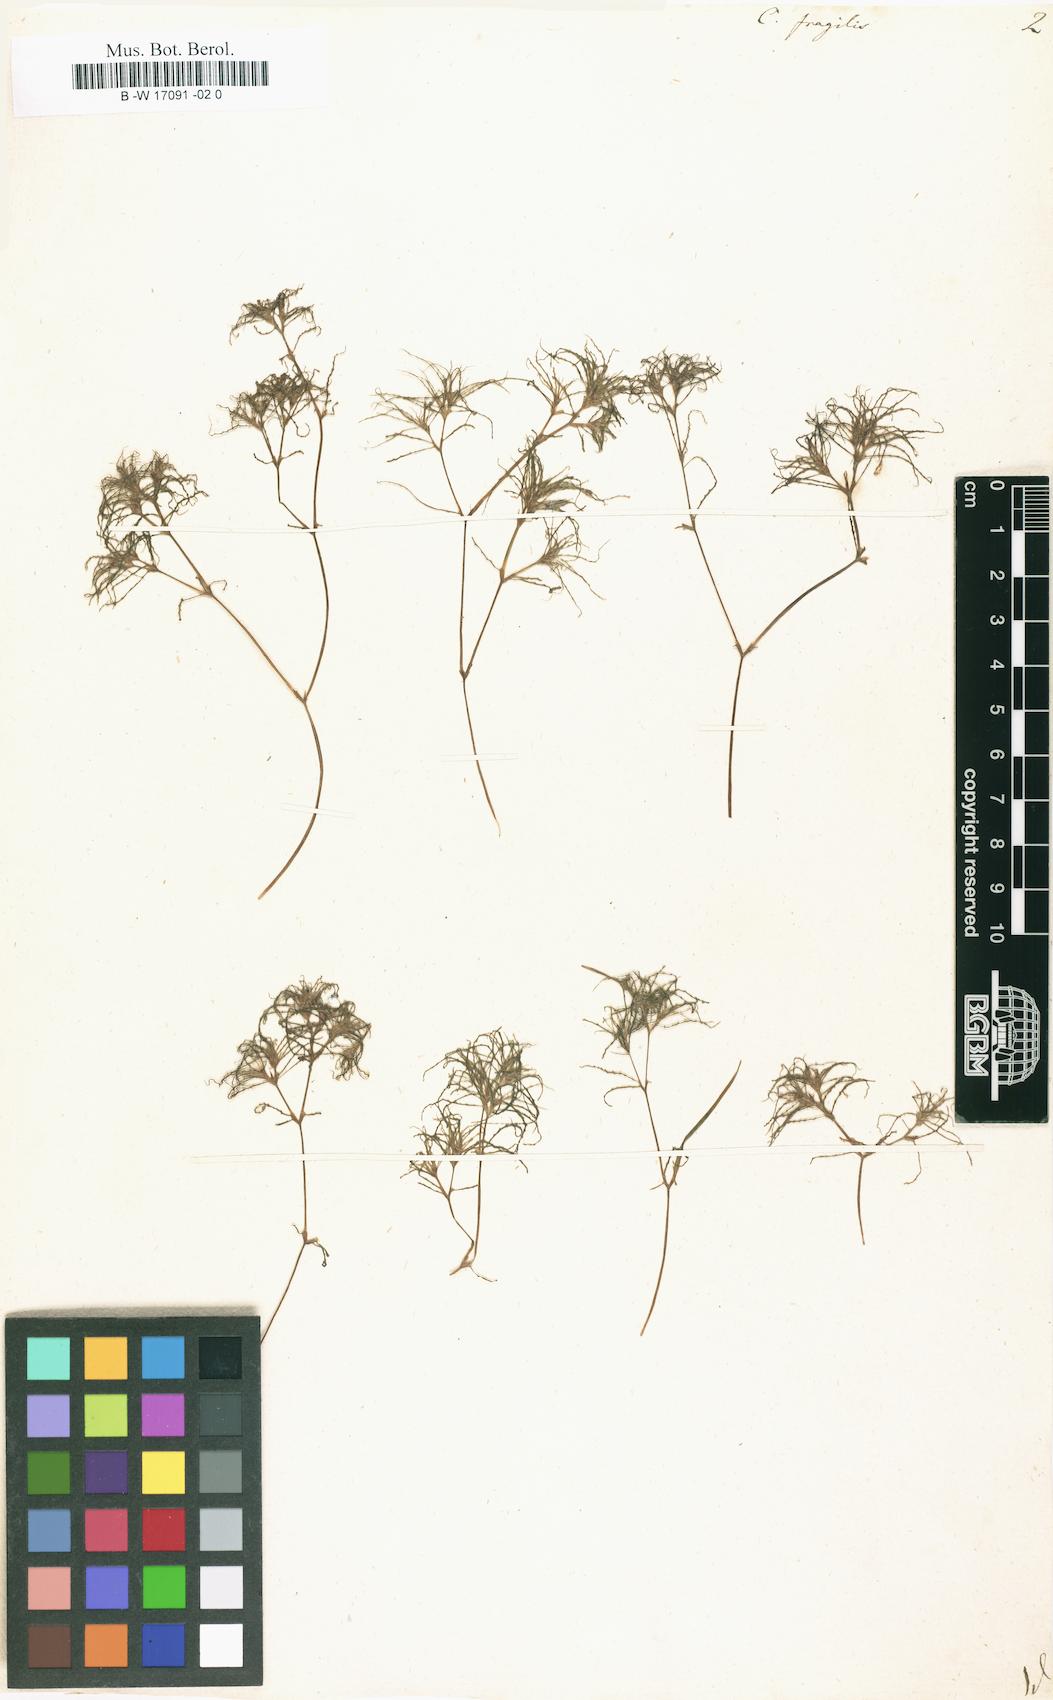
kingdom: Plantae
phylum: Tracheophyta
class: Liliopsida
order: Alismatales
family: Hydrocharitaceae
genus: Najas
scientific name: Najas minor
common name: Brittle naiad
